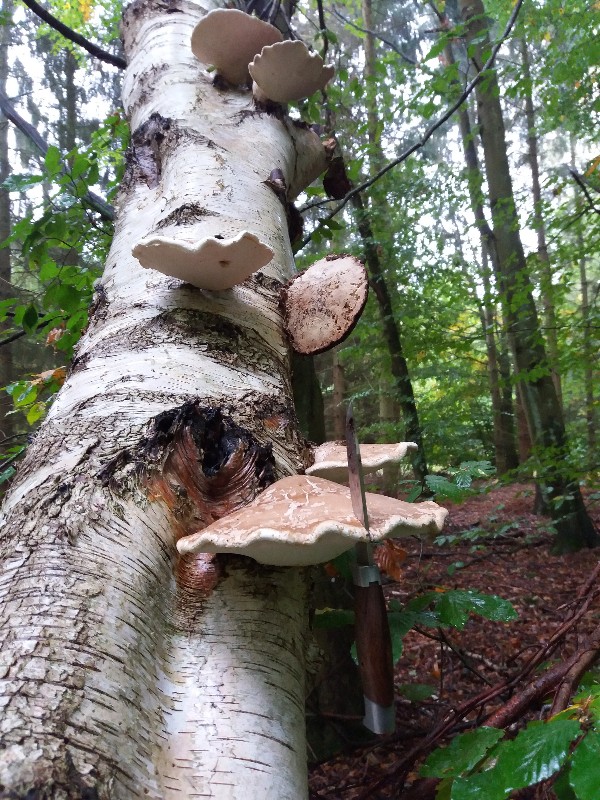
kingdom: Fungi
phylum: Basidiomycota
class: Agaricomycetes
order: Polyporales
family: Fomitopsidaceae
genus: Fomitopsis
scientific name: Fomitopsis betulina
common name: birkeporesvamp
